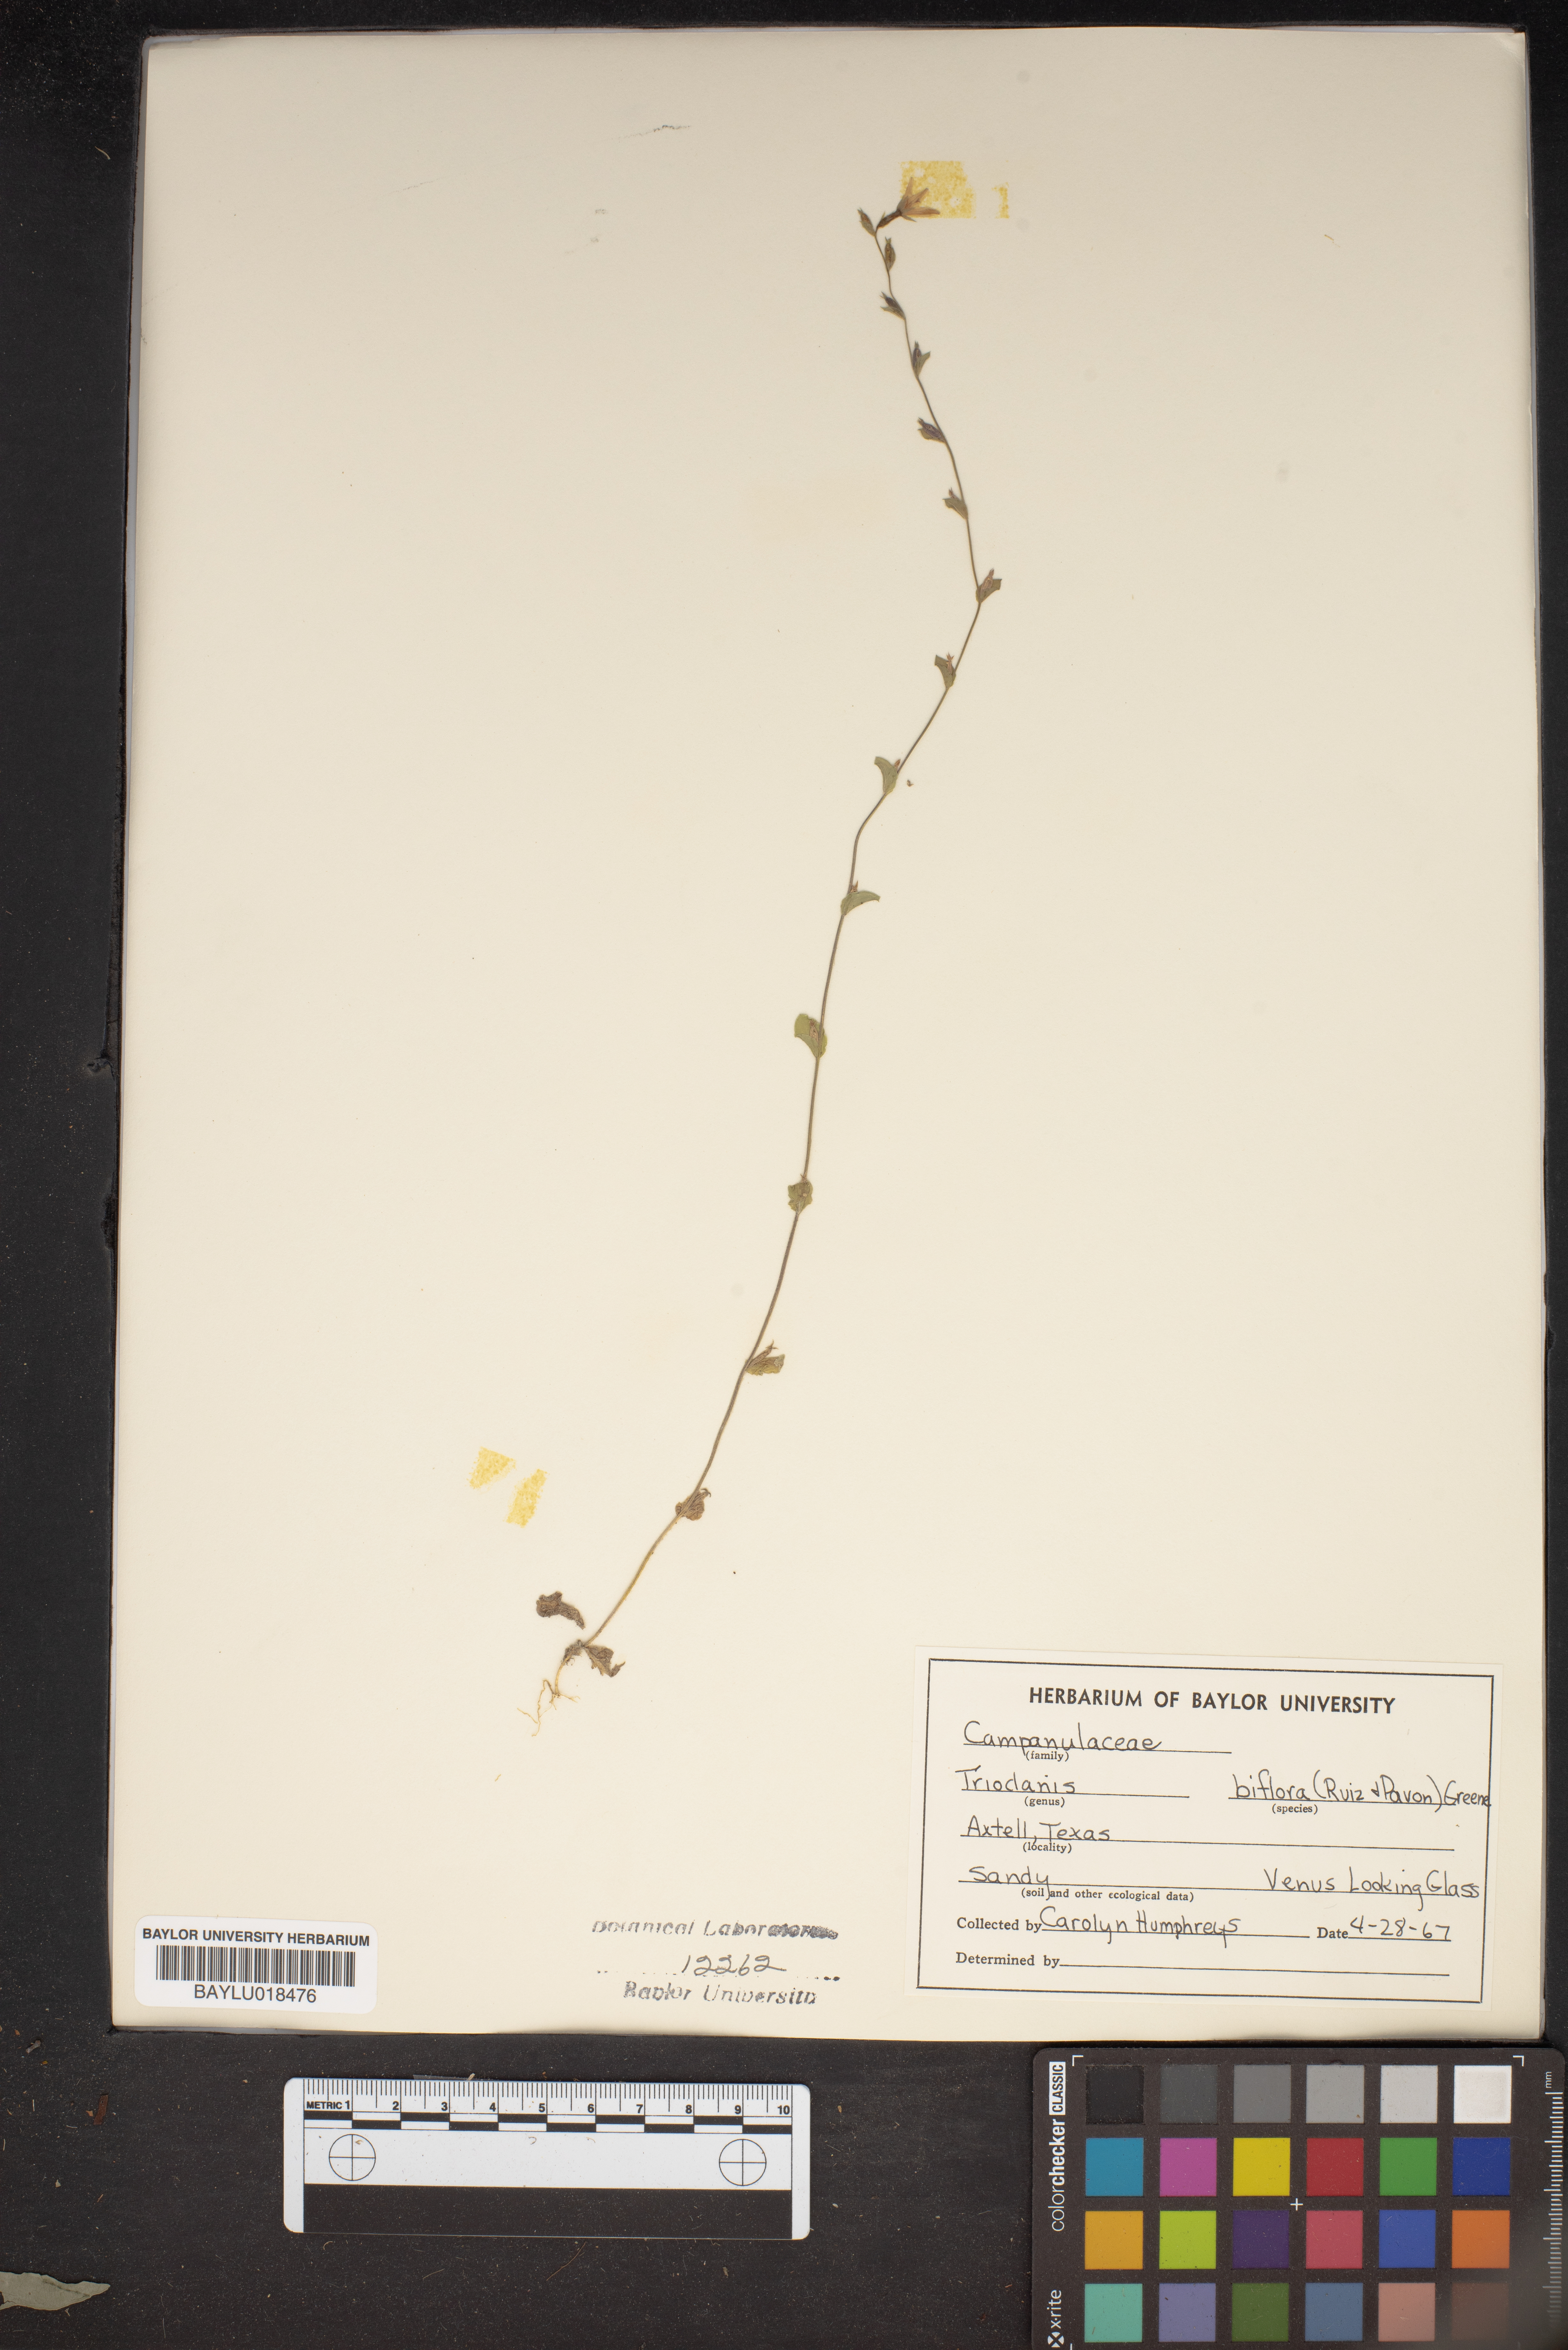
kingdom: Plantae
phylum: Tracheophyta
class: Magnoliopsida
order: Asterales
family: Campanulaceae
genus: Triodanis
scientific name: Triodanis perfoliata
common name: Clasping venus' looking-glass
